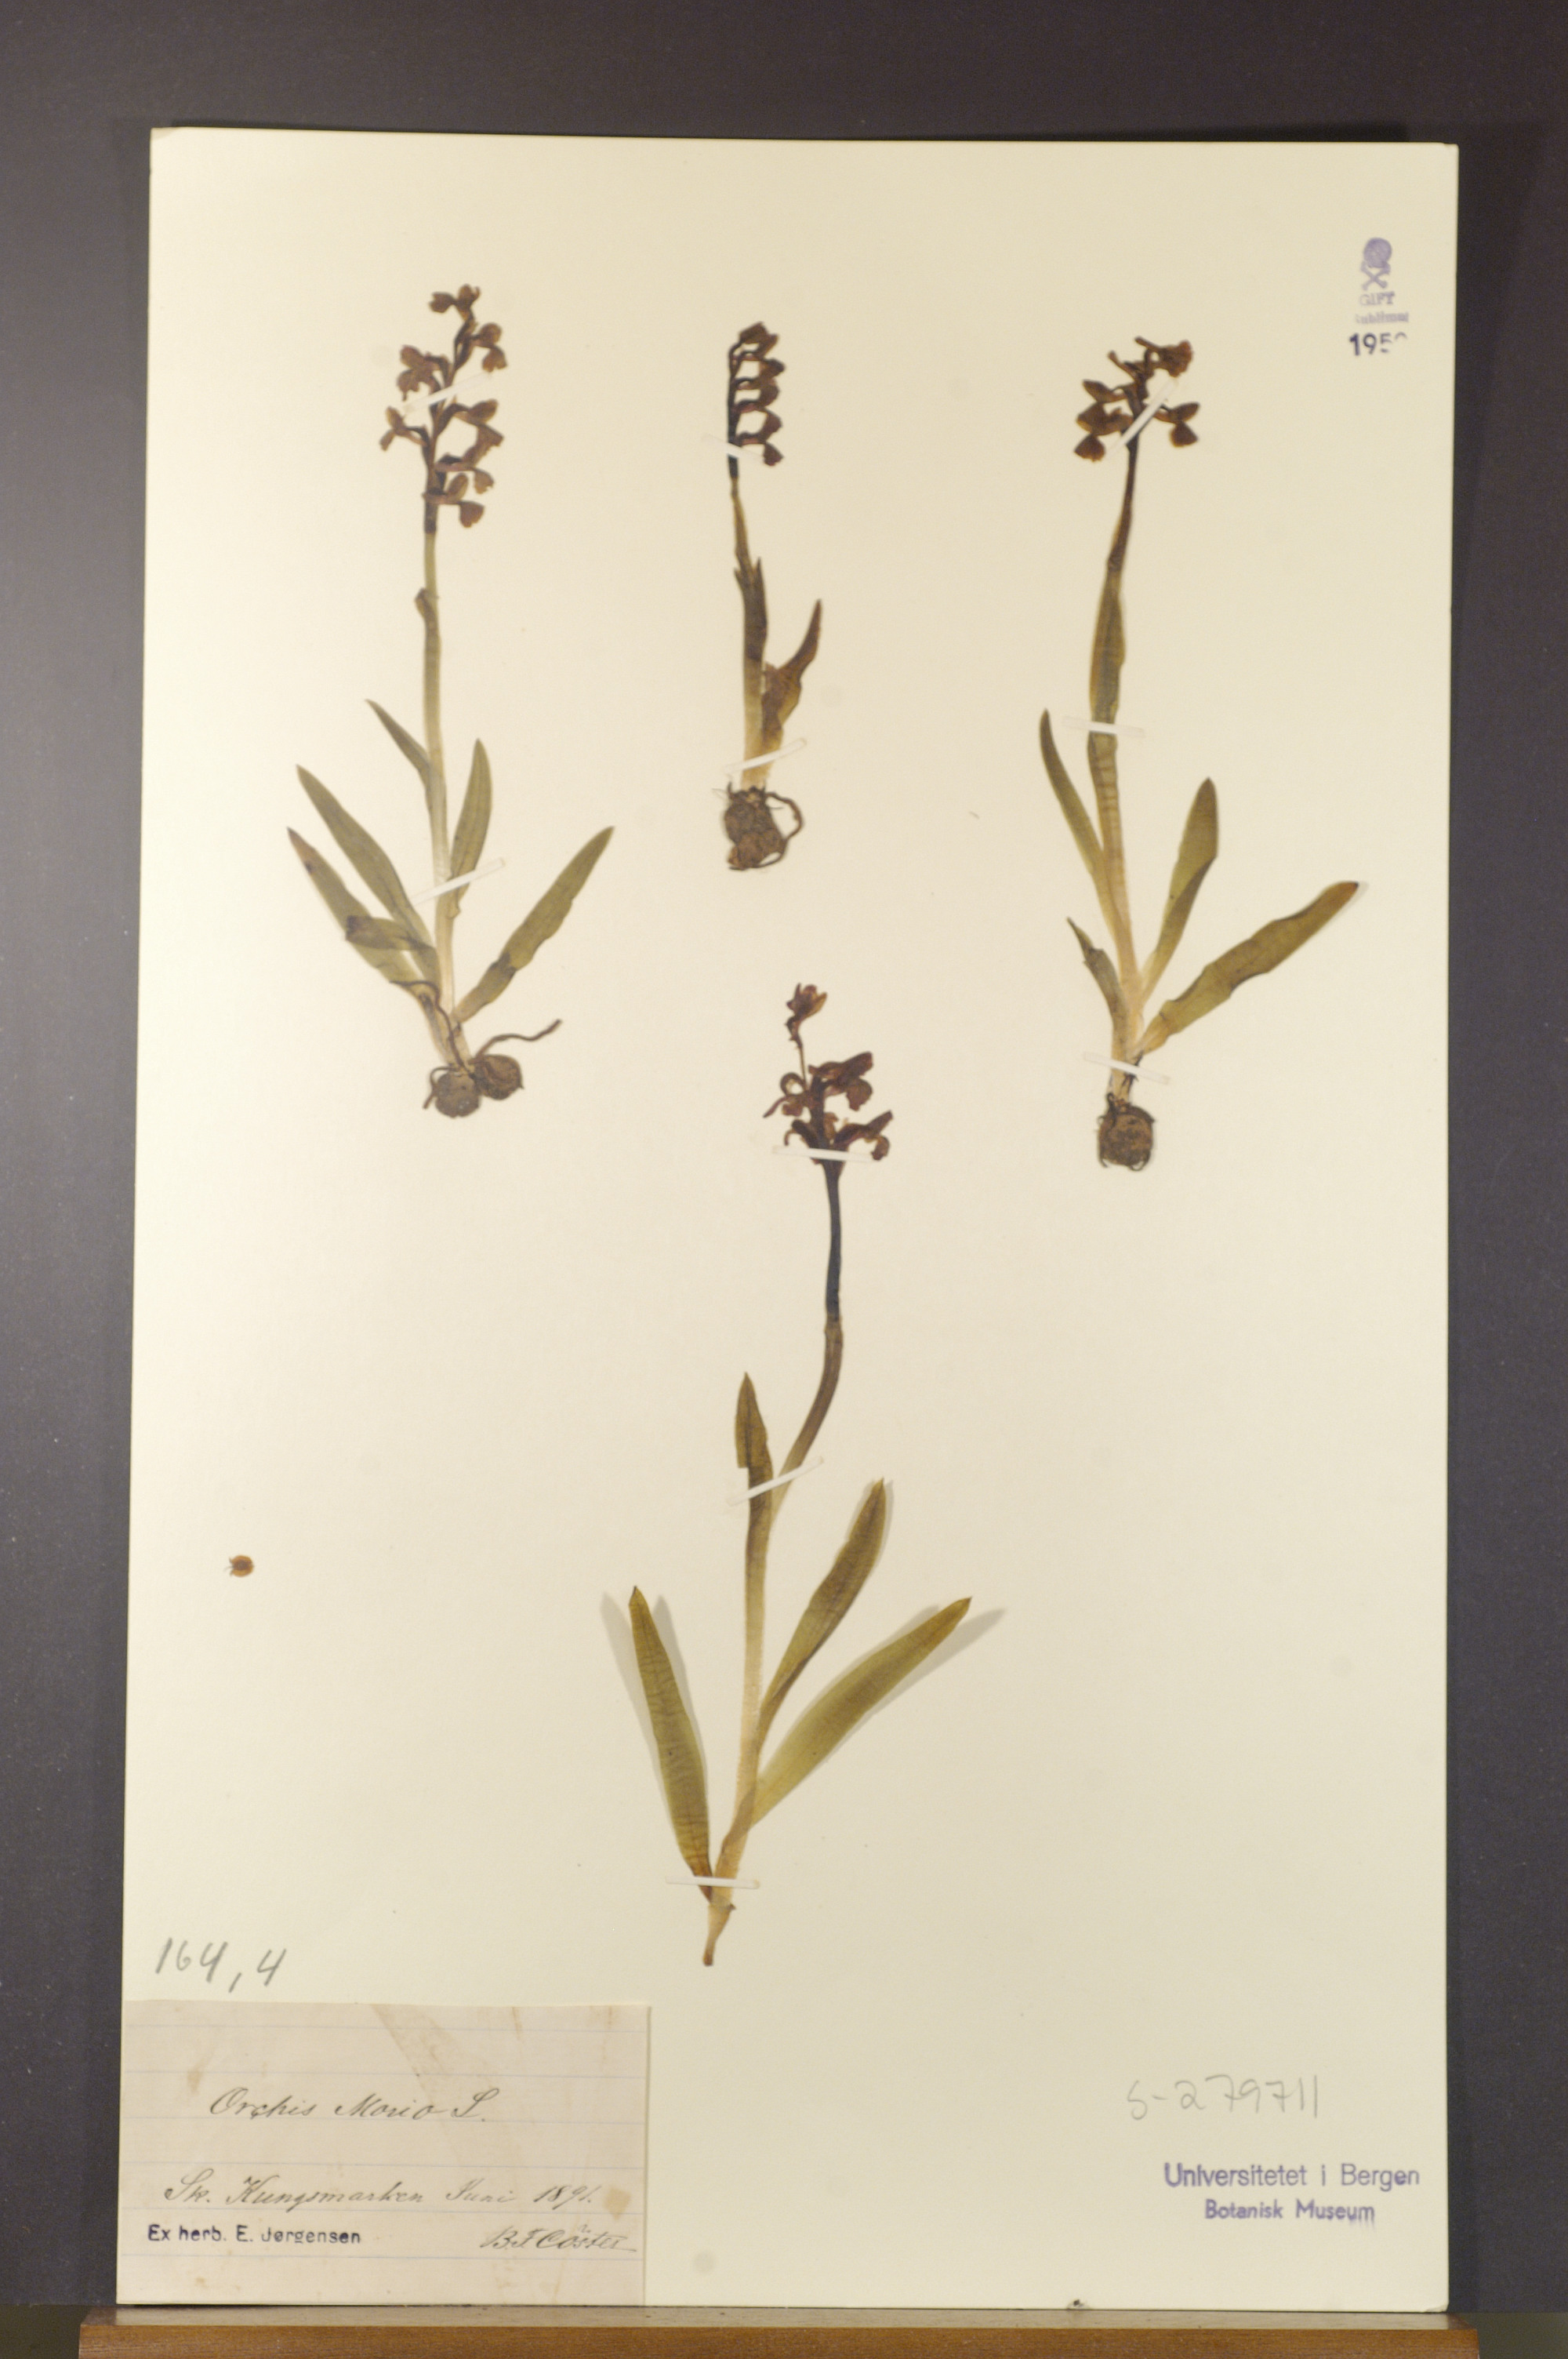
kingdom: Plantae
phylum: Tracheophyta
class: Liliopsida
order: Asparagales
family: Orchidaceae
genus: Anacamptis
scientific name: Anacamptis morio
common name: Green-winged orchid
